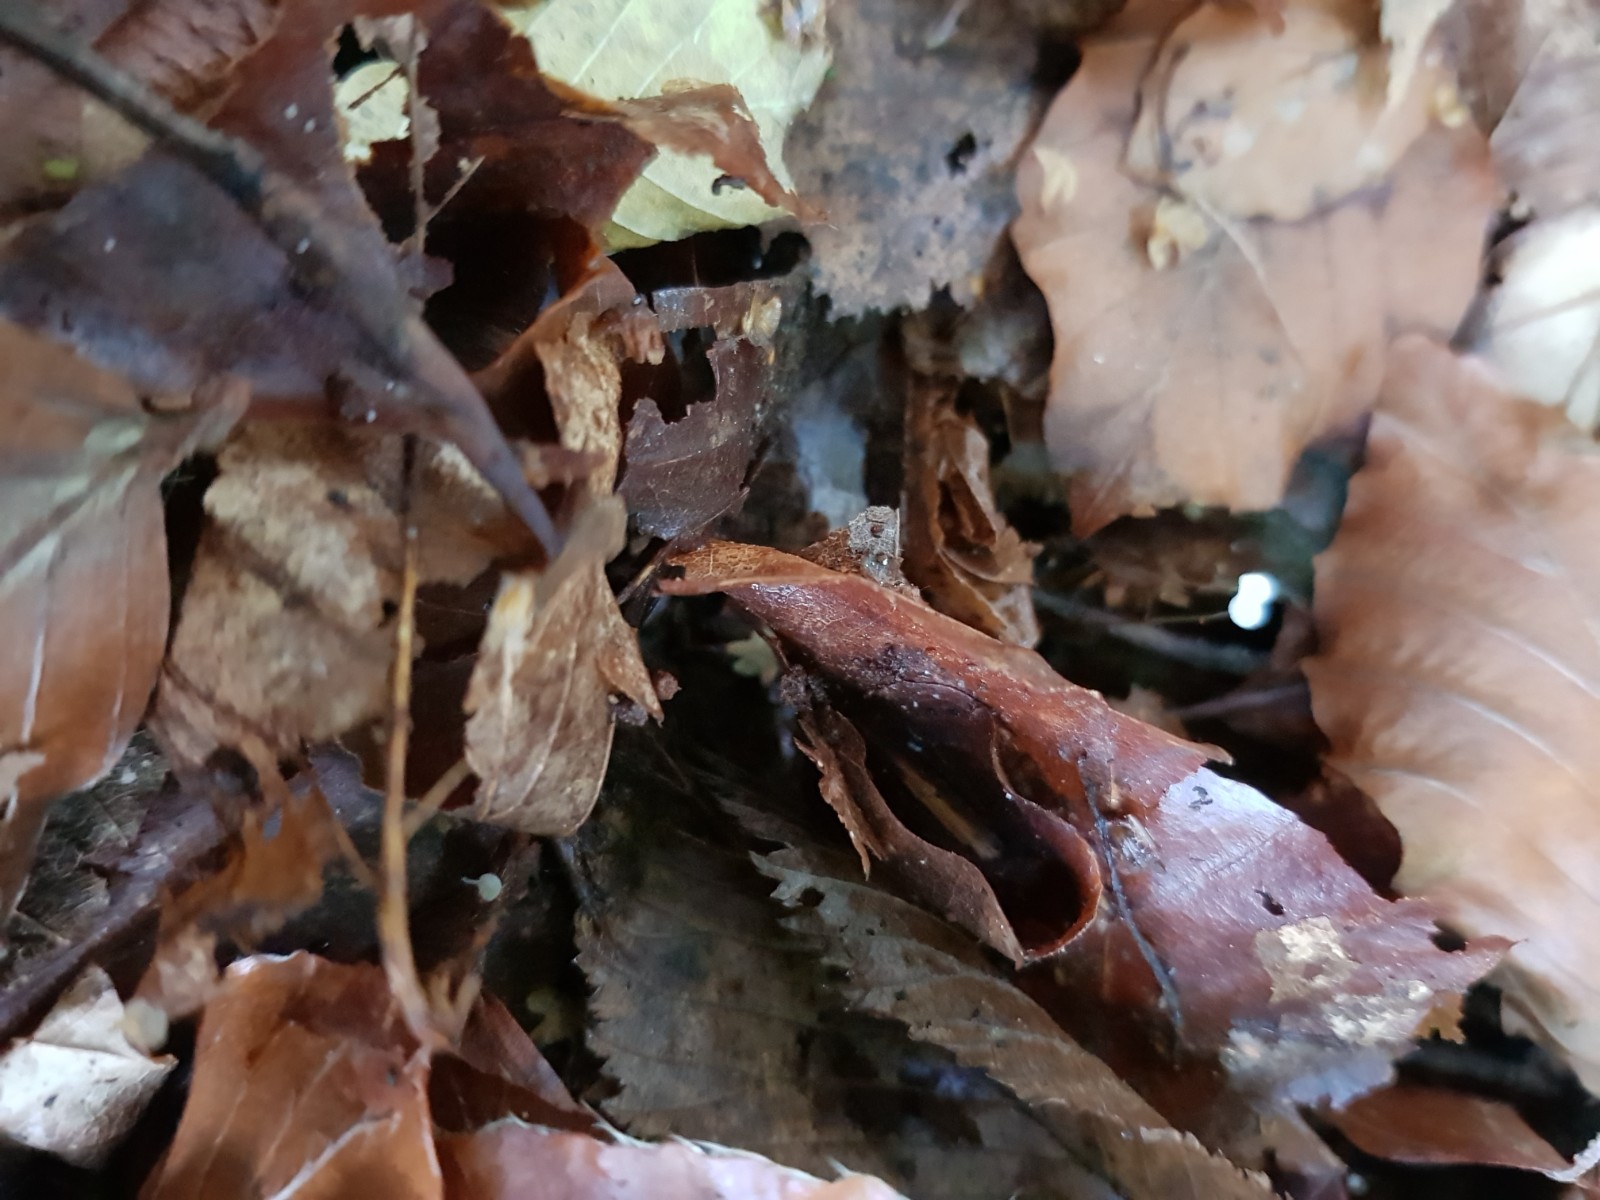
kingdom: Fungi
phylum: Basidiomycota
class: Agaricomycetes
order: Agaricales
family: Physalacriaceae
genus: Rhizomarasmius
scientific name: Rhizomarasmius setosus
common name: bøgeblads-bruskhat
